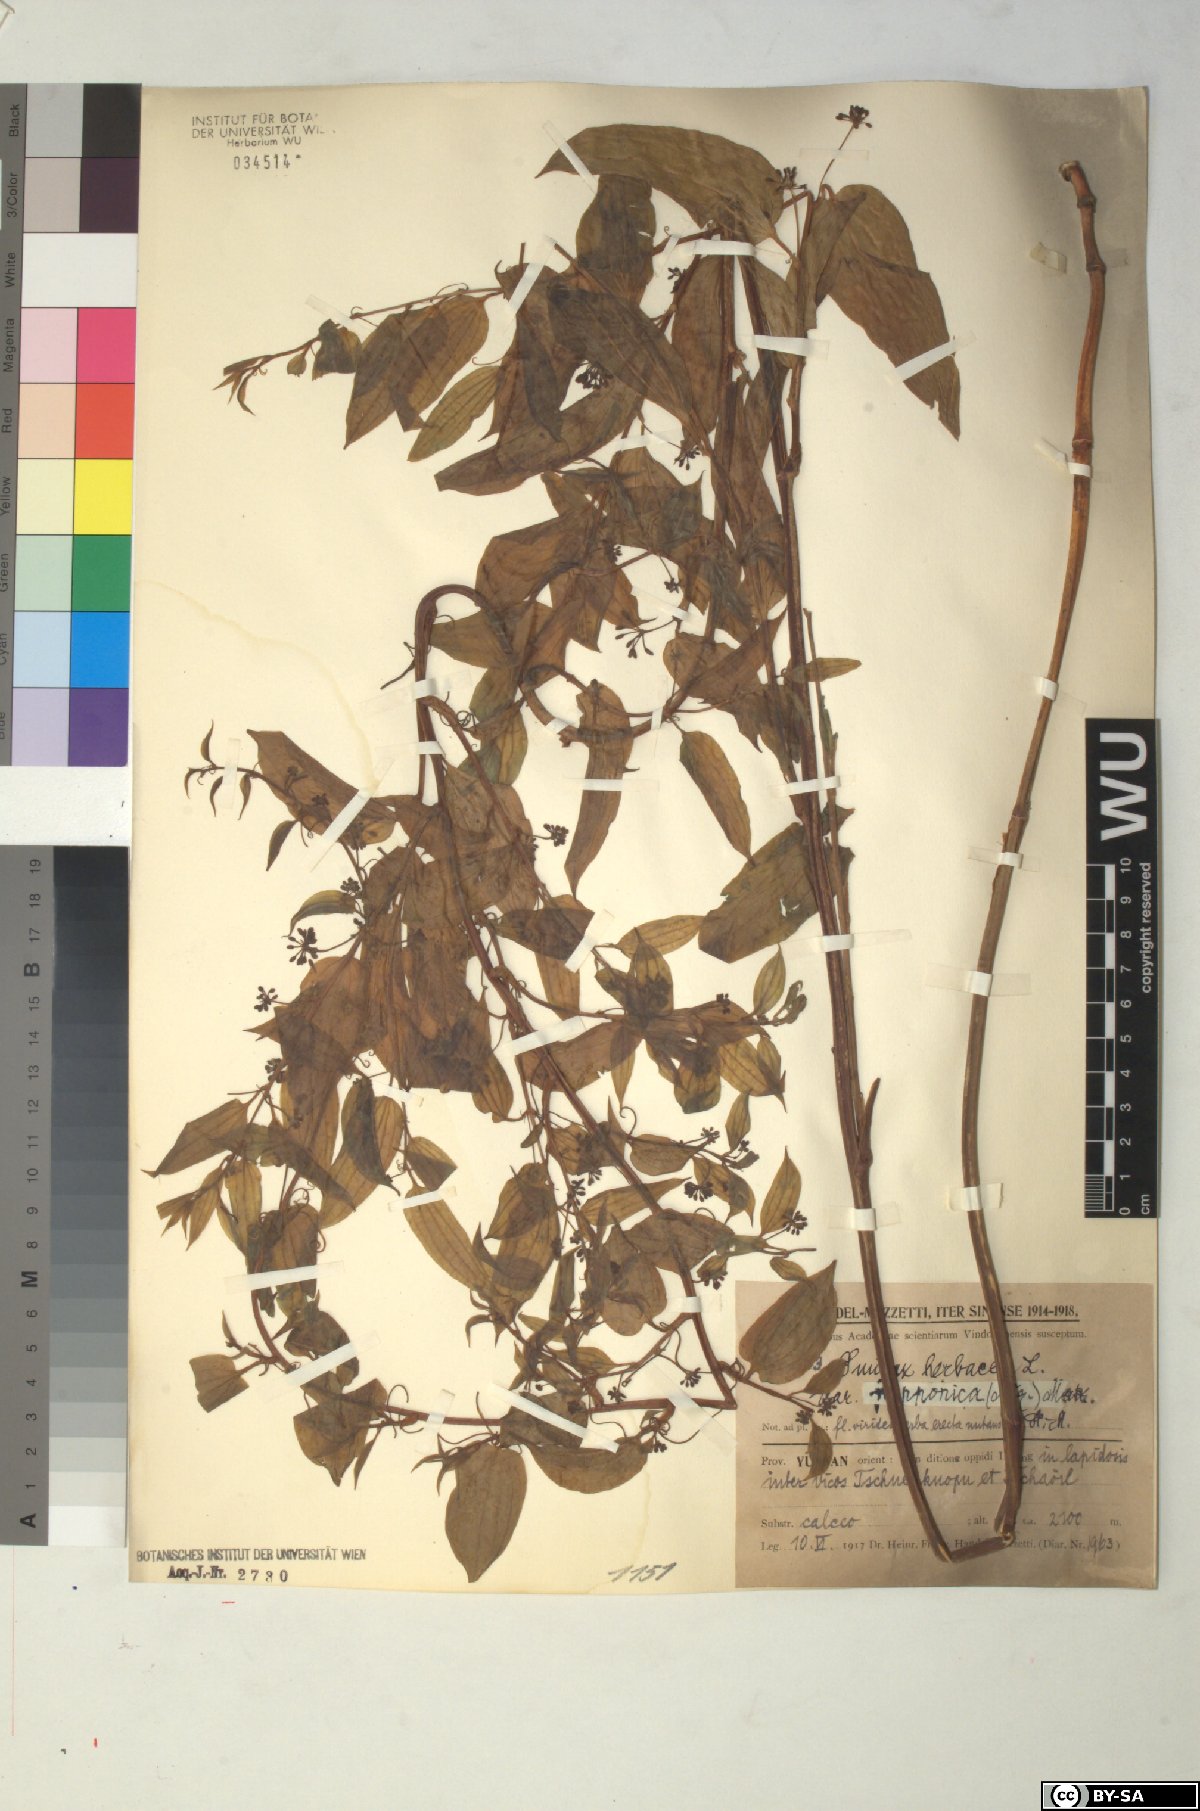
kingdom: Plantae
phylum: Tracheophyta
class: Liliopsida
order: Liliales
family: Smilacaceae
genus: Smilax
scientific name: Smilax nipponica
